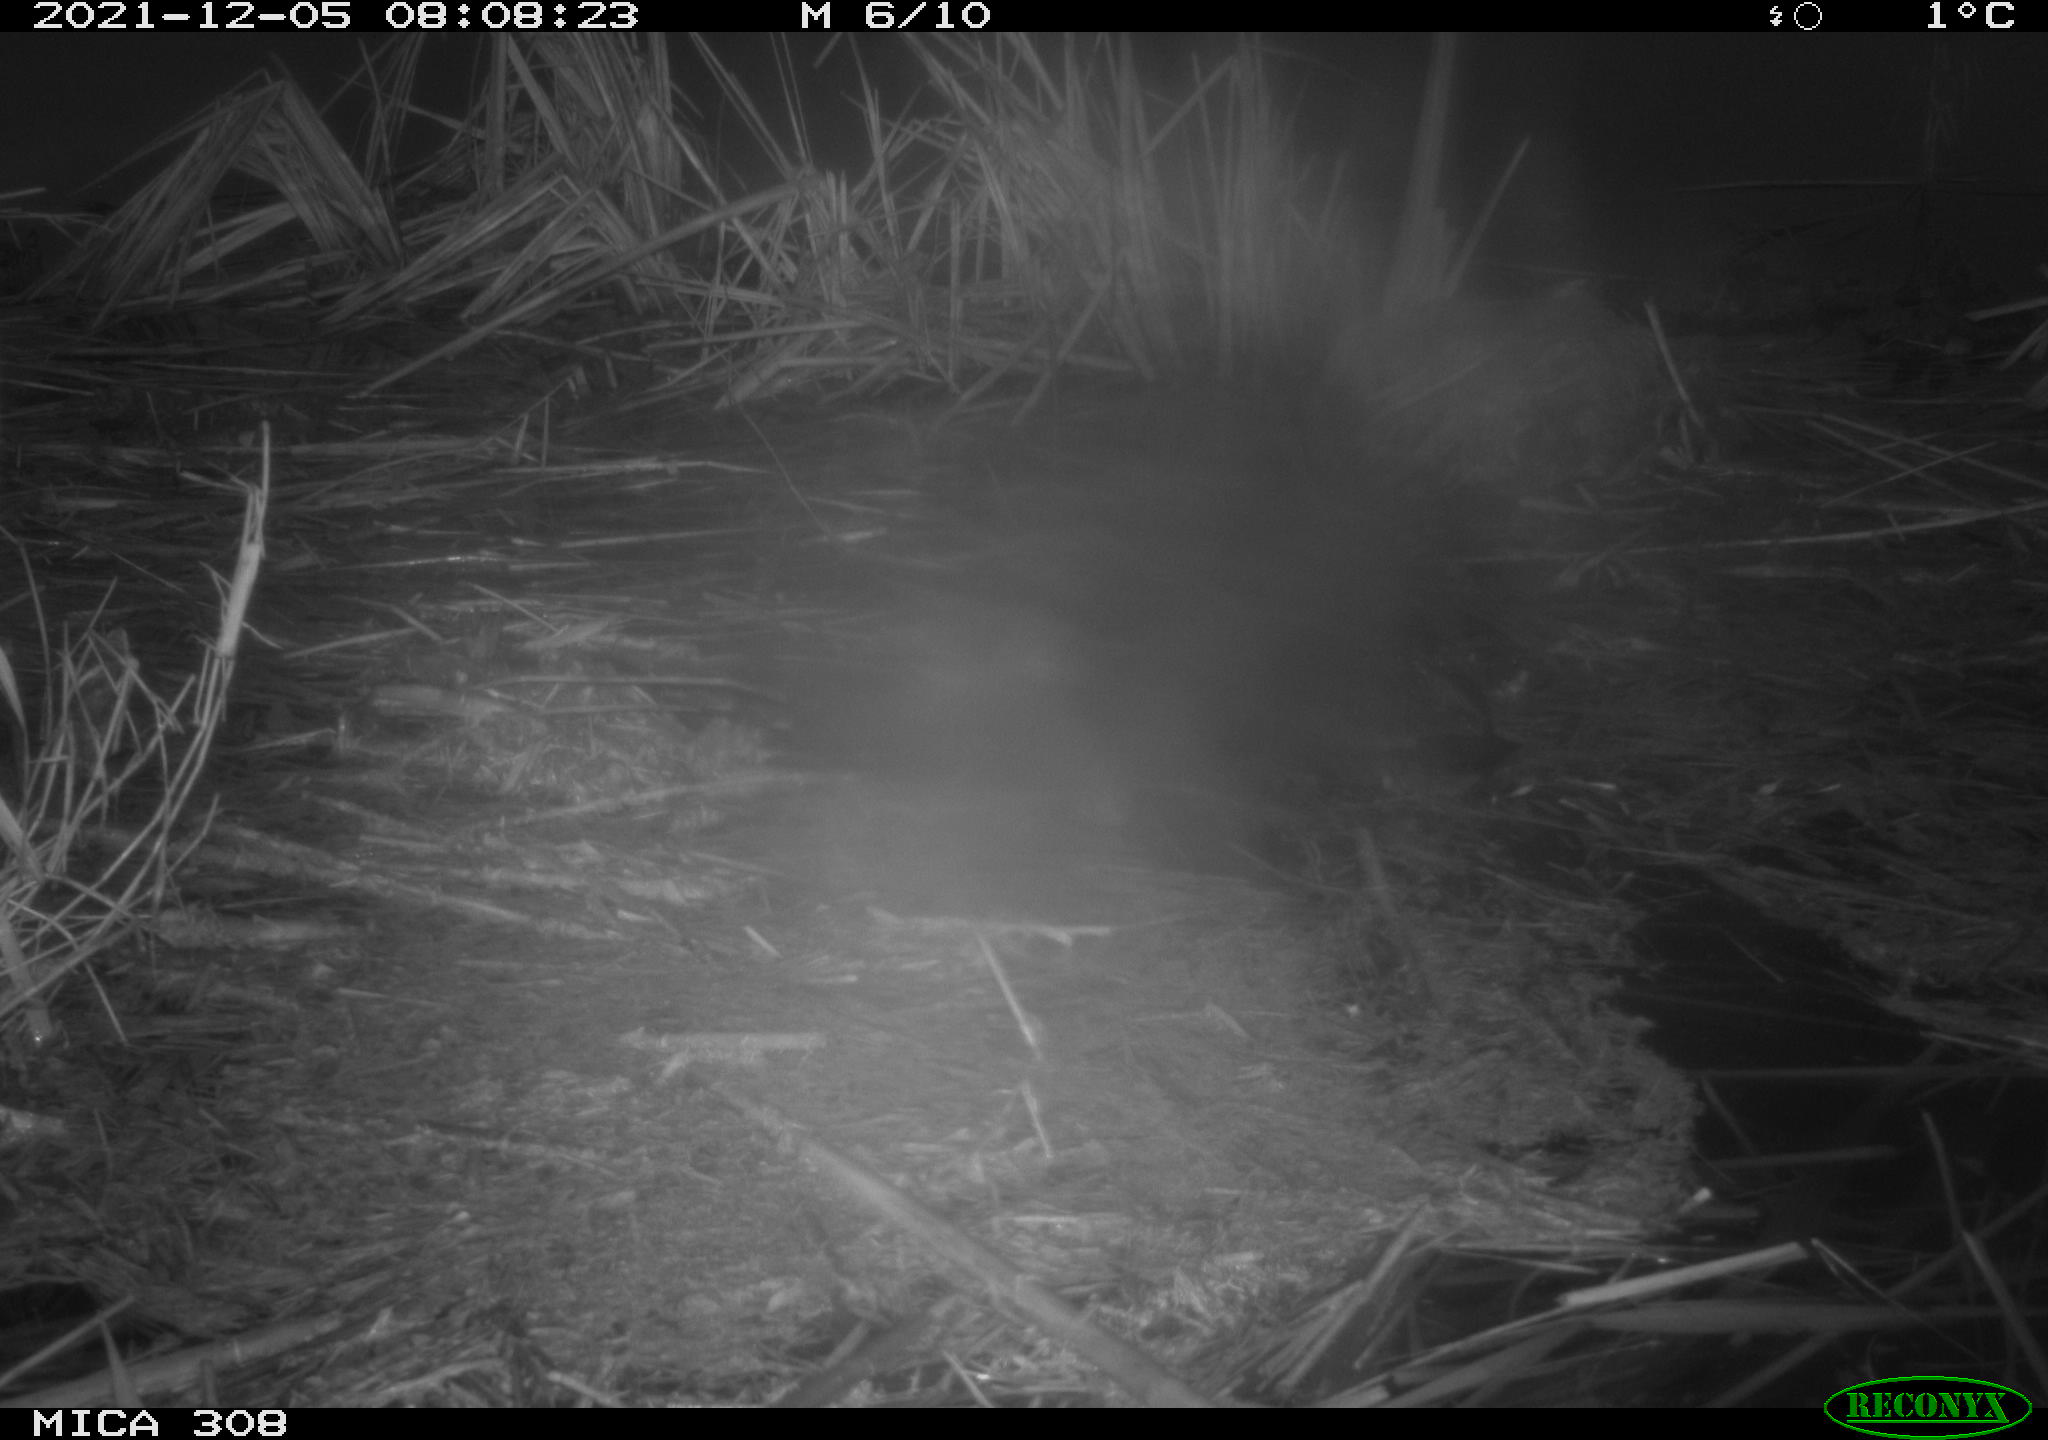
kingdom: Animalia
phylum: Chordata
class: Aves
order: Gruiformes
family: Rallidae
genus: Fulica
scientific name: Fulica atra
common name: Eurasian coot
